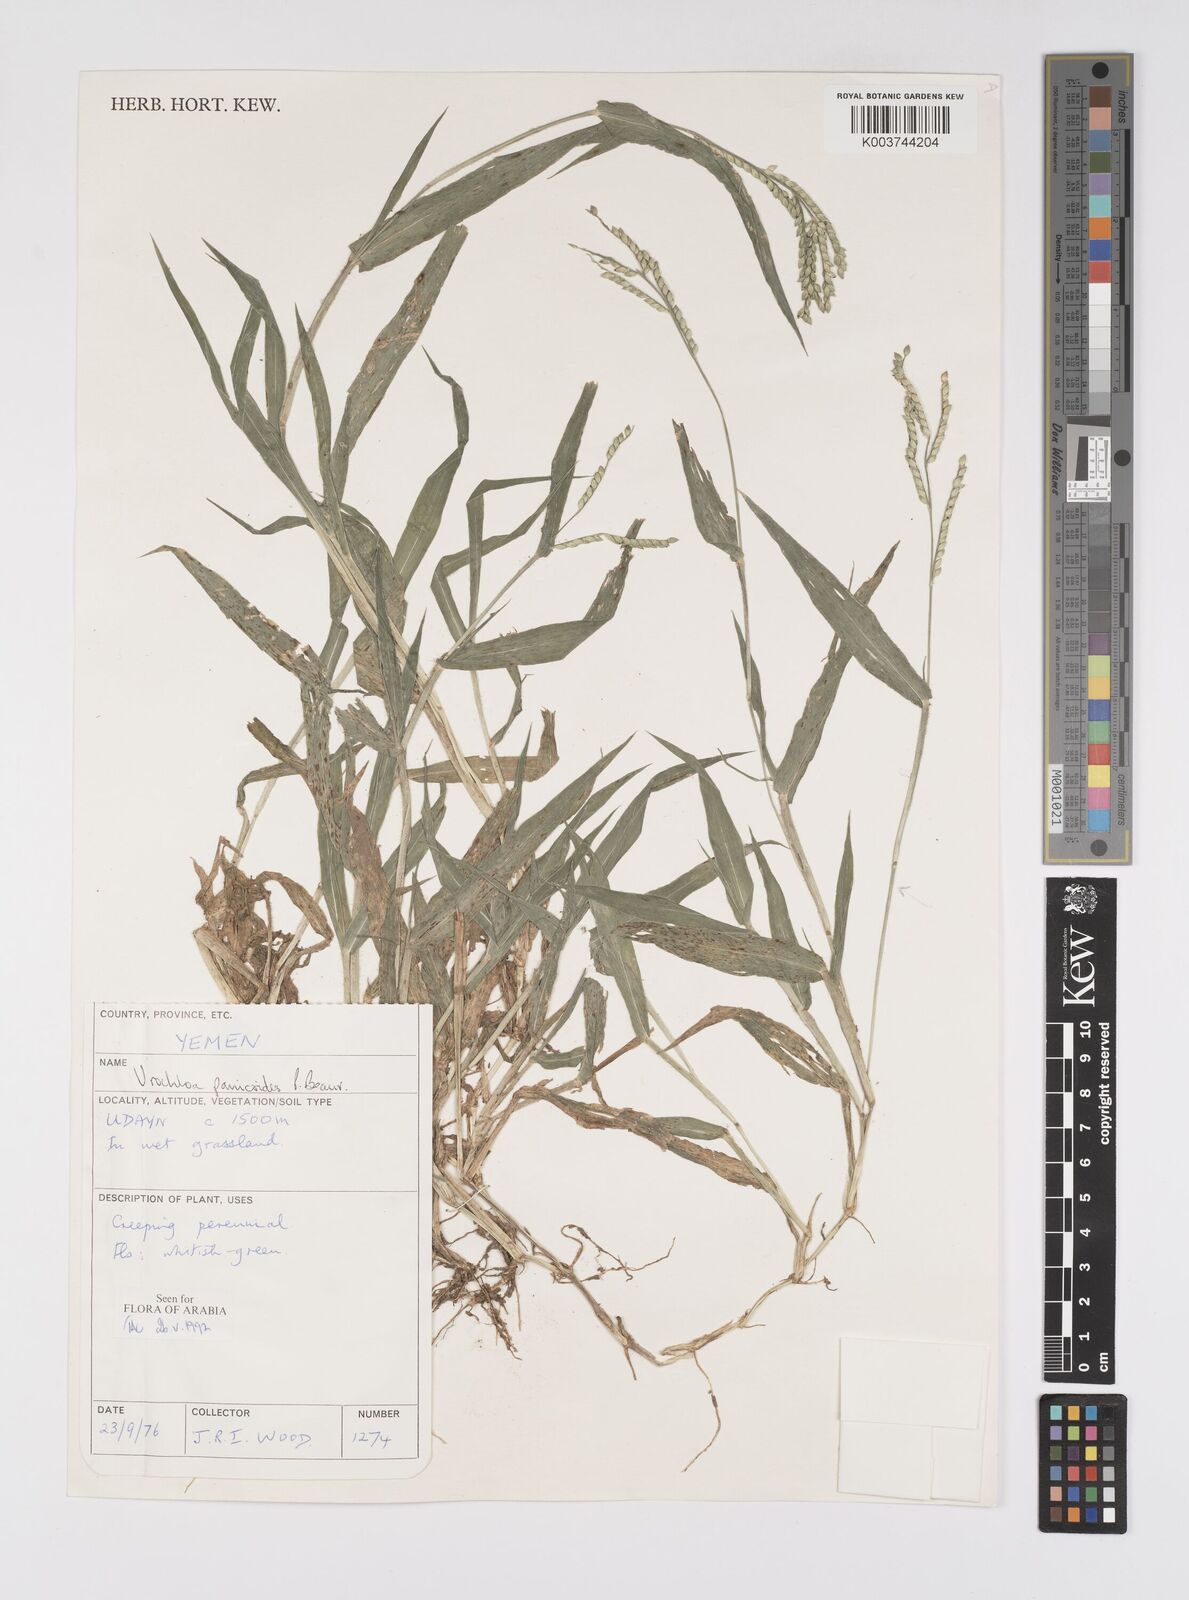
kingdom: Plantae
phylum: Tracheophyta
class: Liliopsida
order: Poales
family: Poaceae
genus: Urochloa
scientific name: Urochloa panicoides
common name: Sharp-flowered signal-grass
